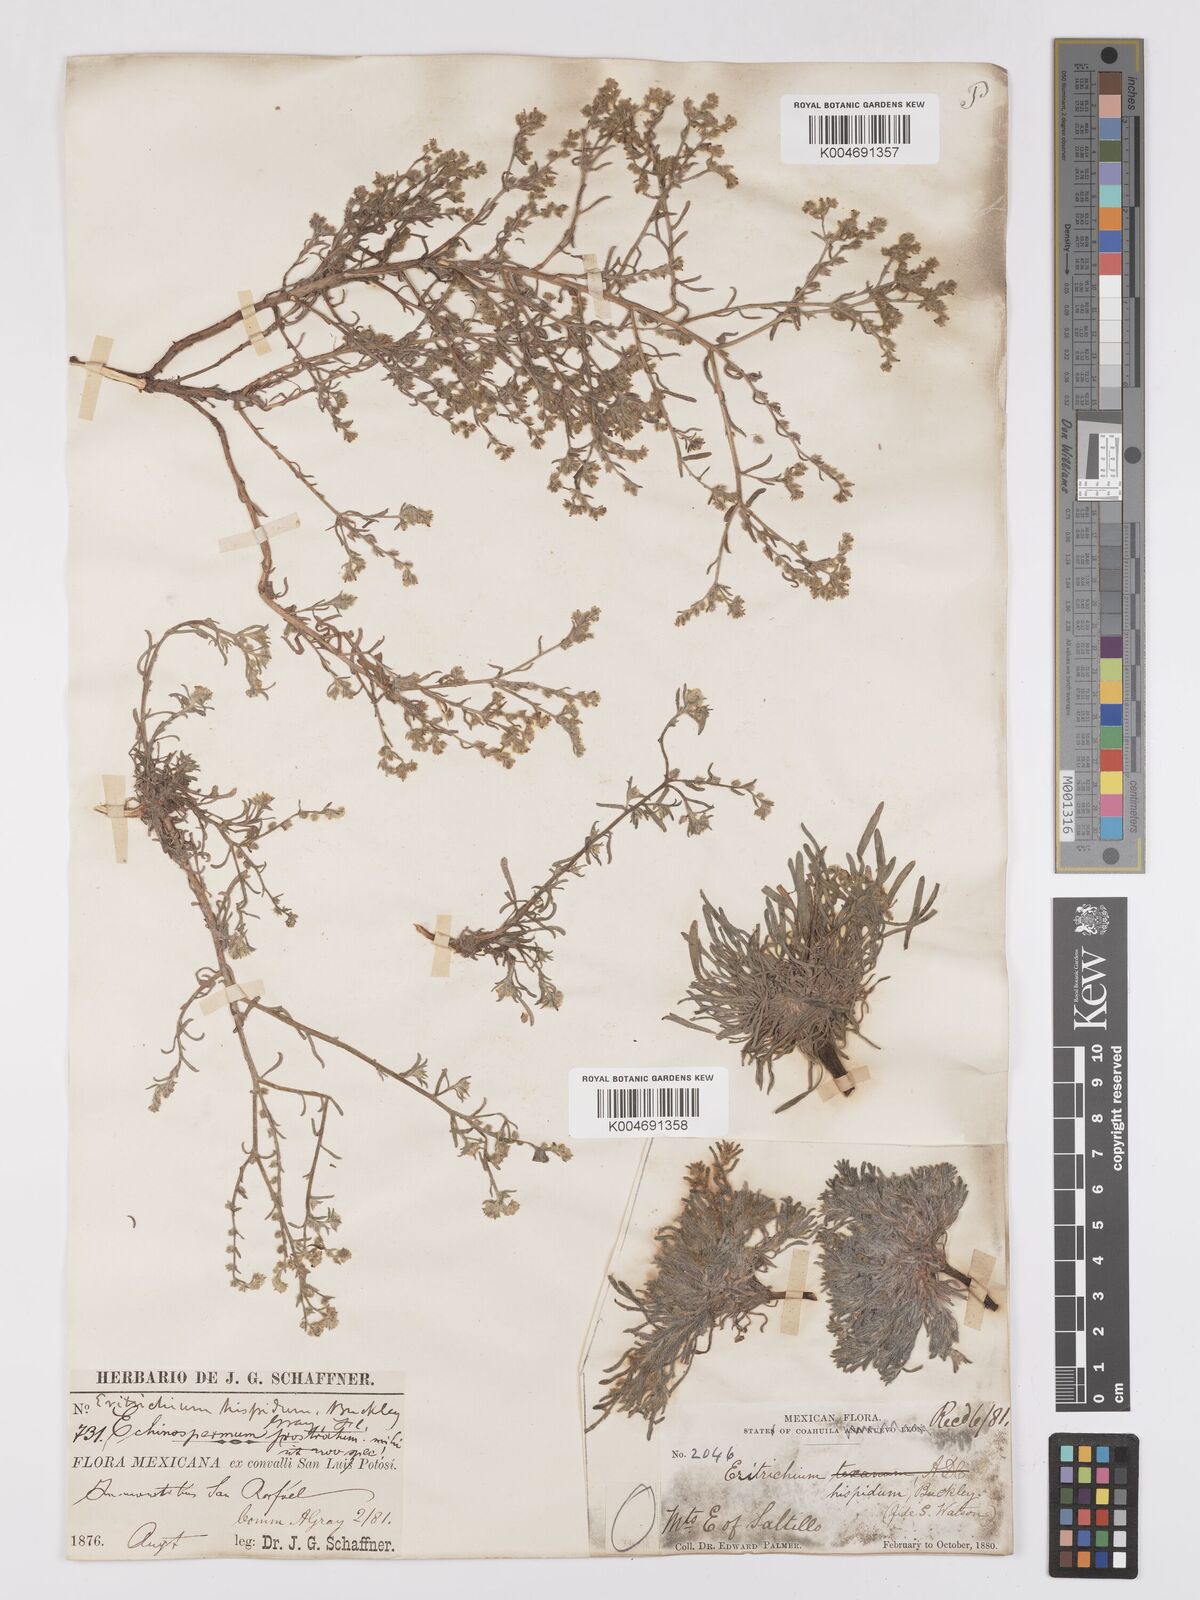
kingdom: Plantae
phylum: Tracheophyta
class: Magnoliopsida
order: Boraginales
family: Boraginaceae
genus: Johnstonella
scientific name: Johnstonella albida
